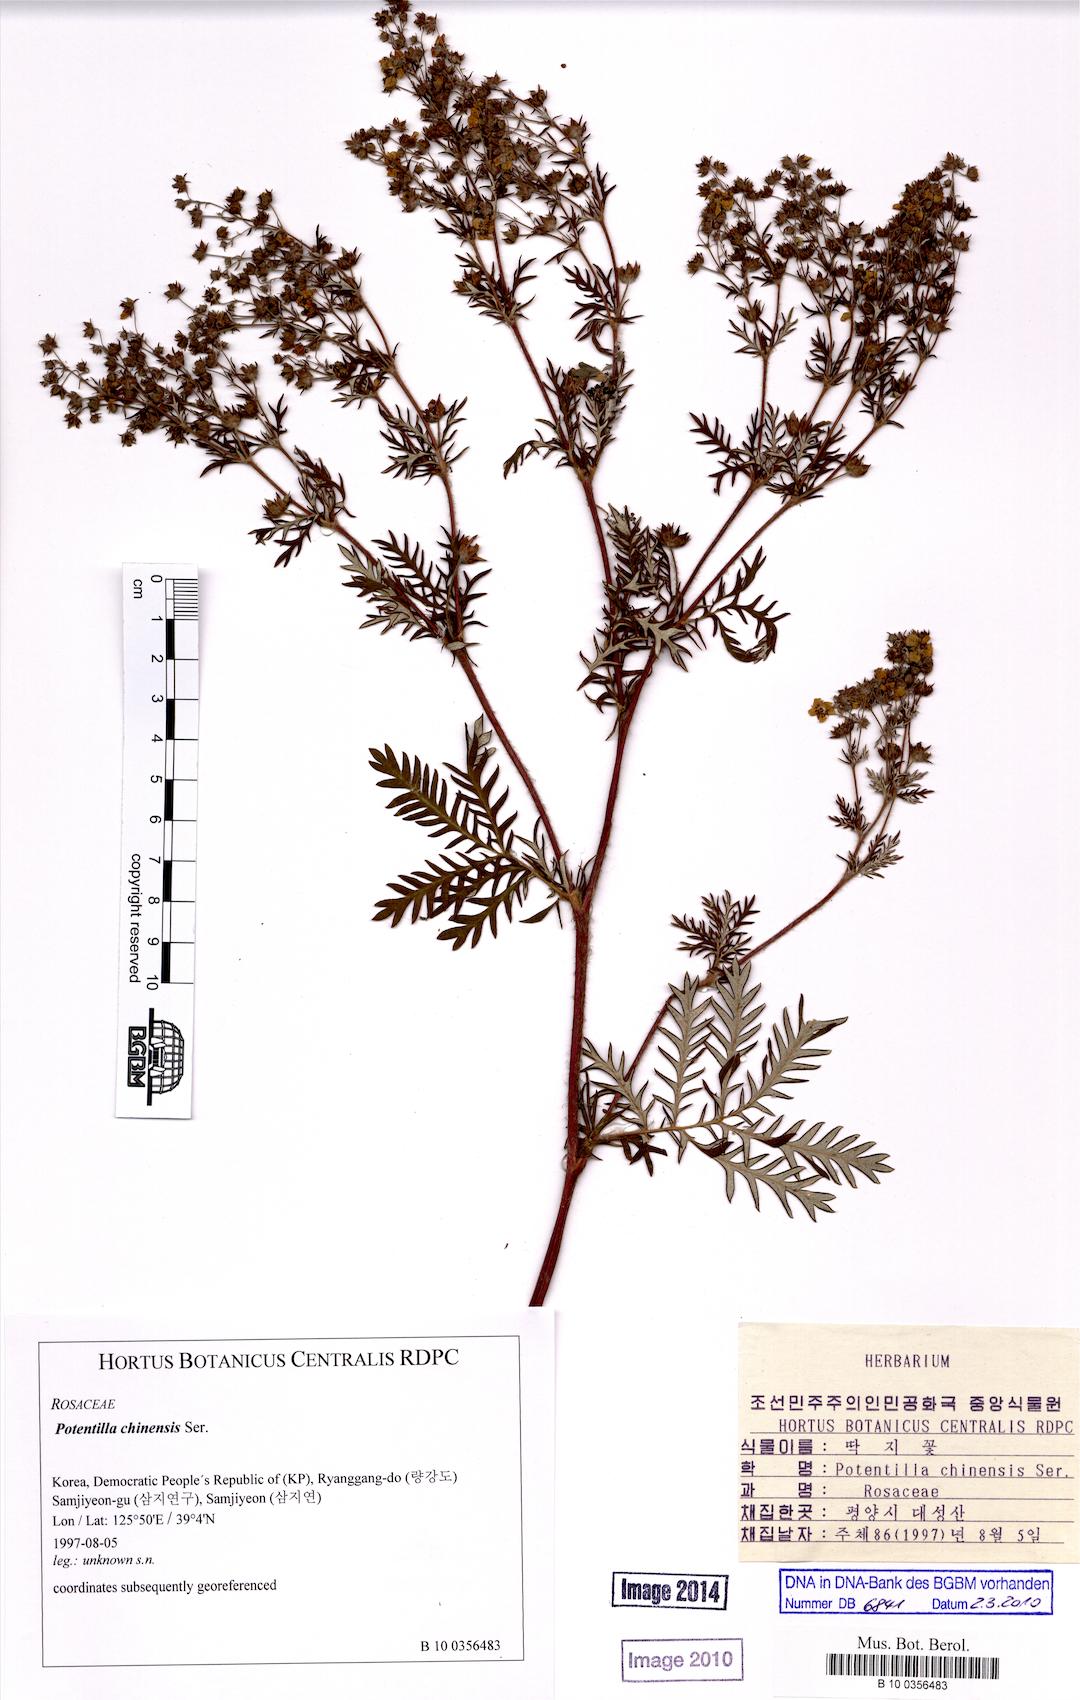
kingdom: Plantae
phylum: Tracheophyta
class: Magnoliopsida
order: Rosales
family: Rosaceae
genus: Potentilla
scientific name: Potentilla chinensis
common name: Chinese cinquefoil
